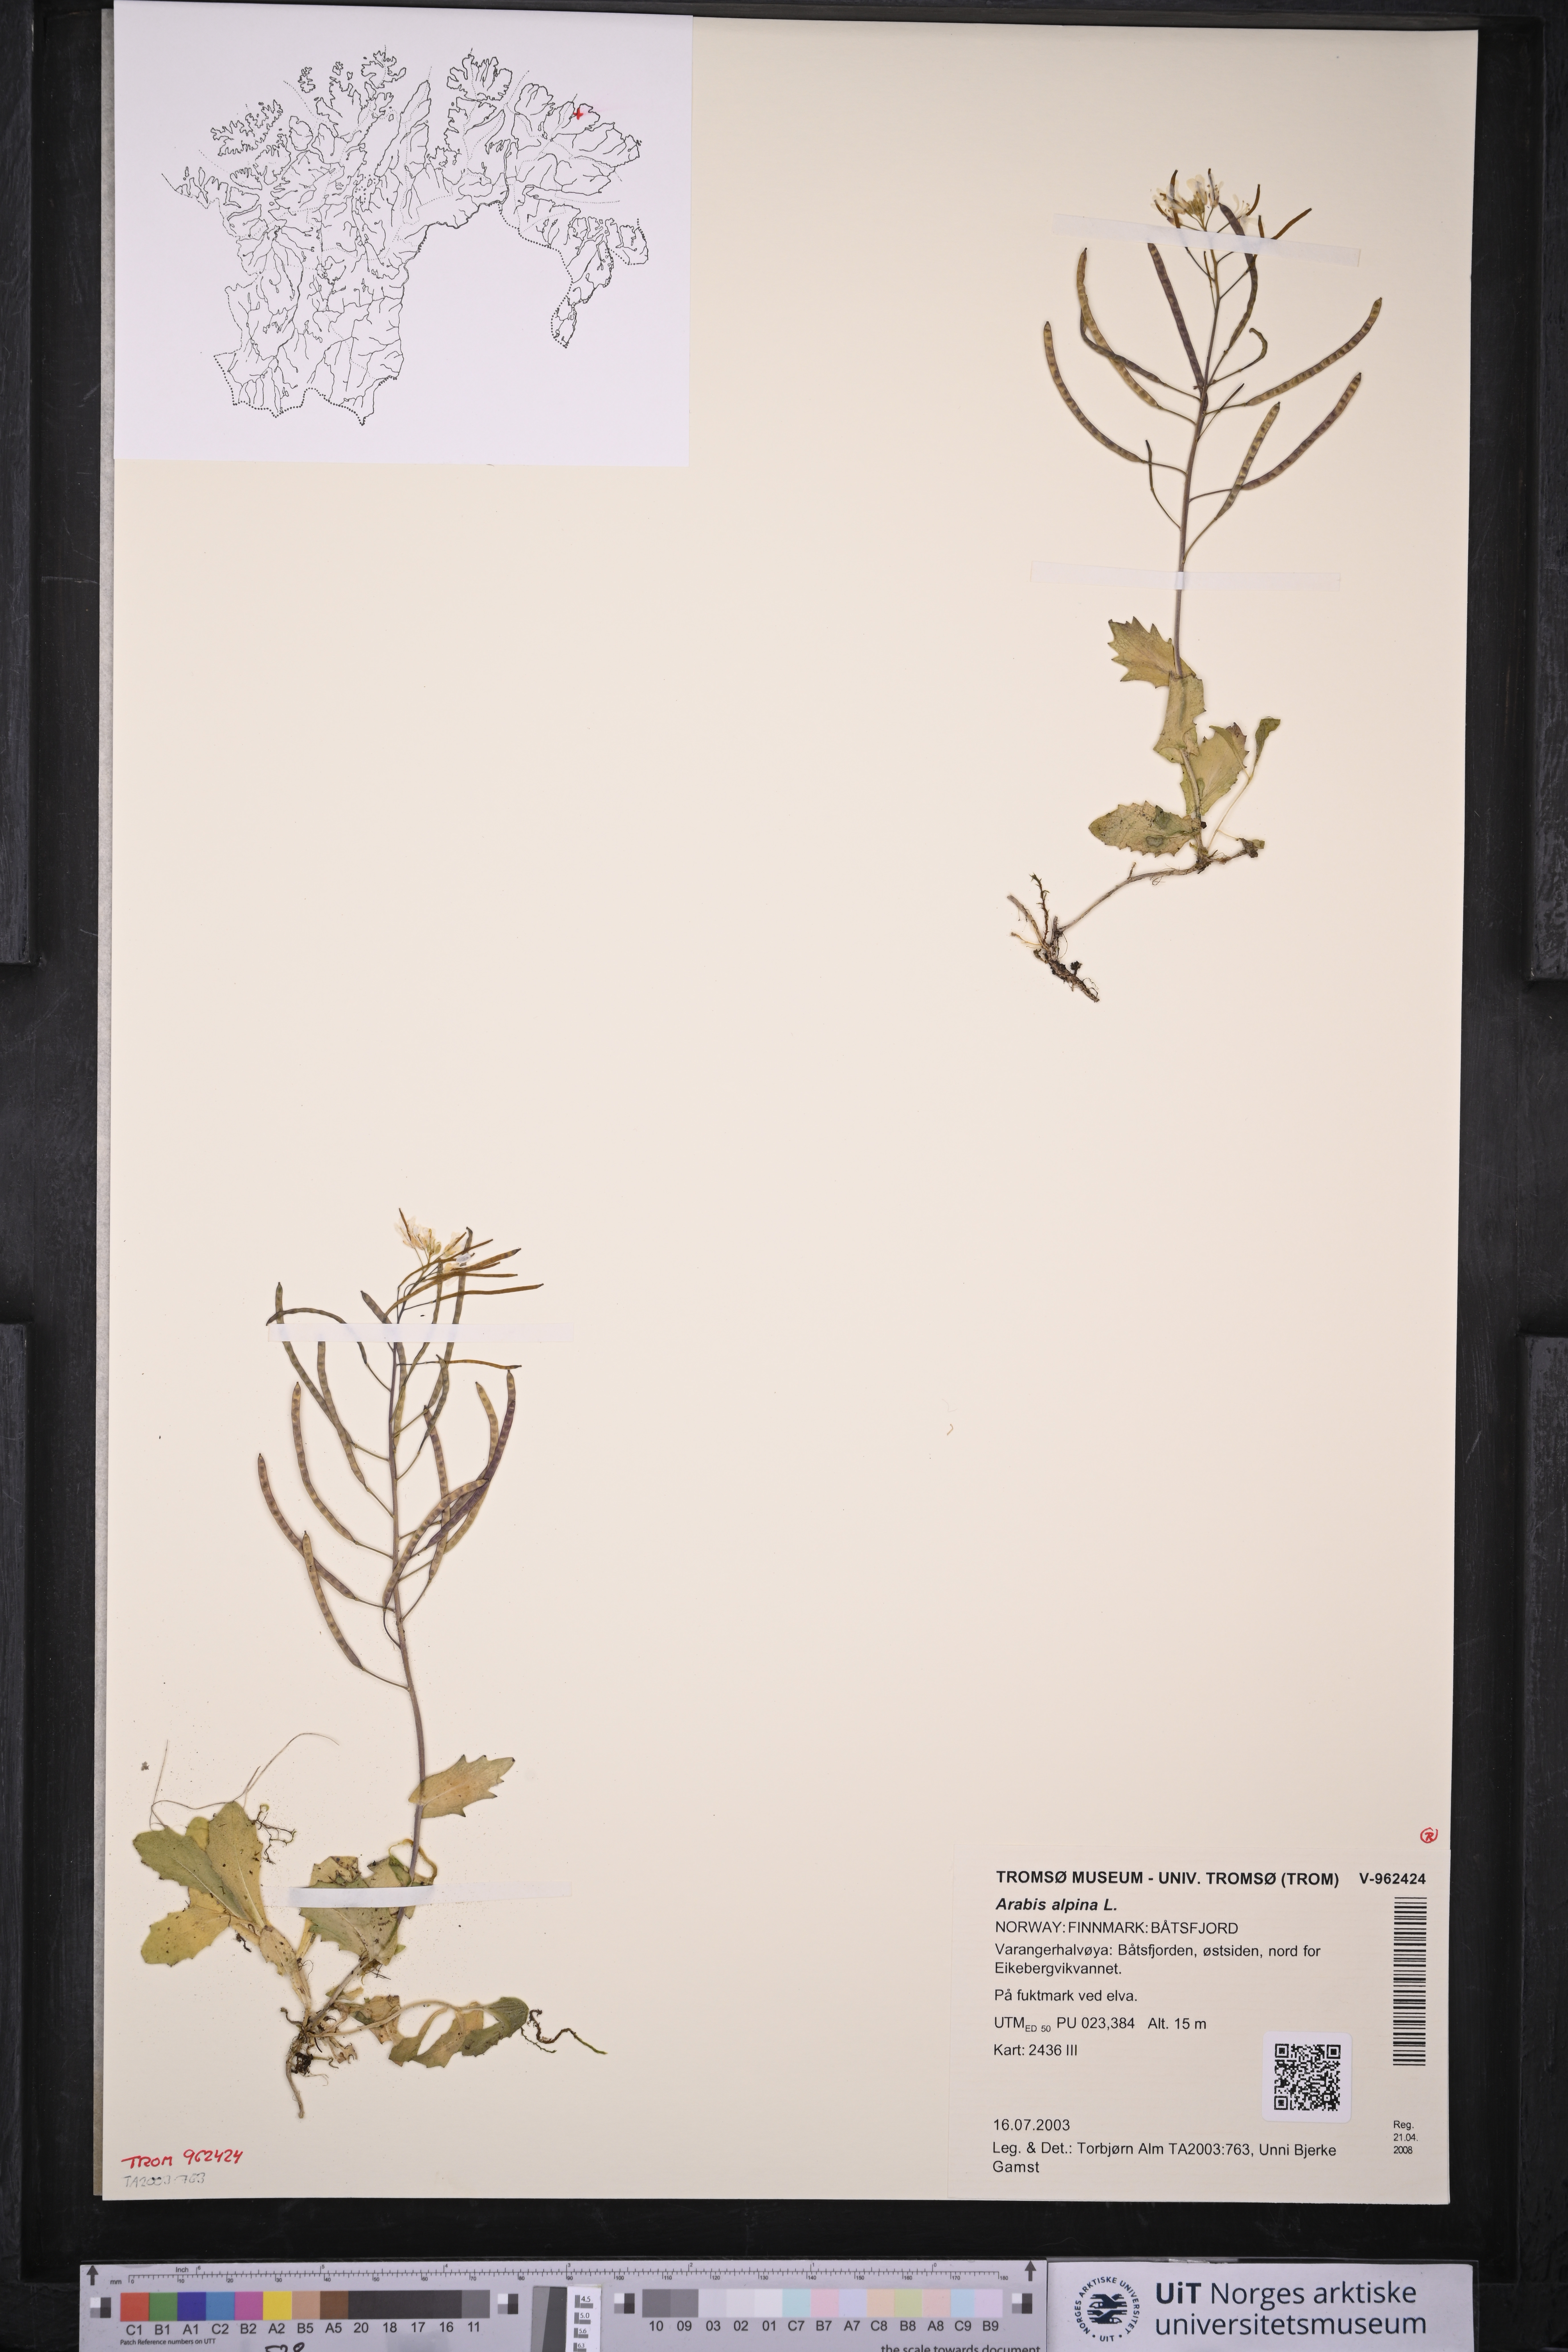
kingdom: Plantae
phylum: Tracheophyta
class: Magnoliopsida
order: Brassicales
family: Brassicaceae
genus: Arabis
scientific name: Arabis alpina
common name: Alpine rock-cress
